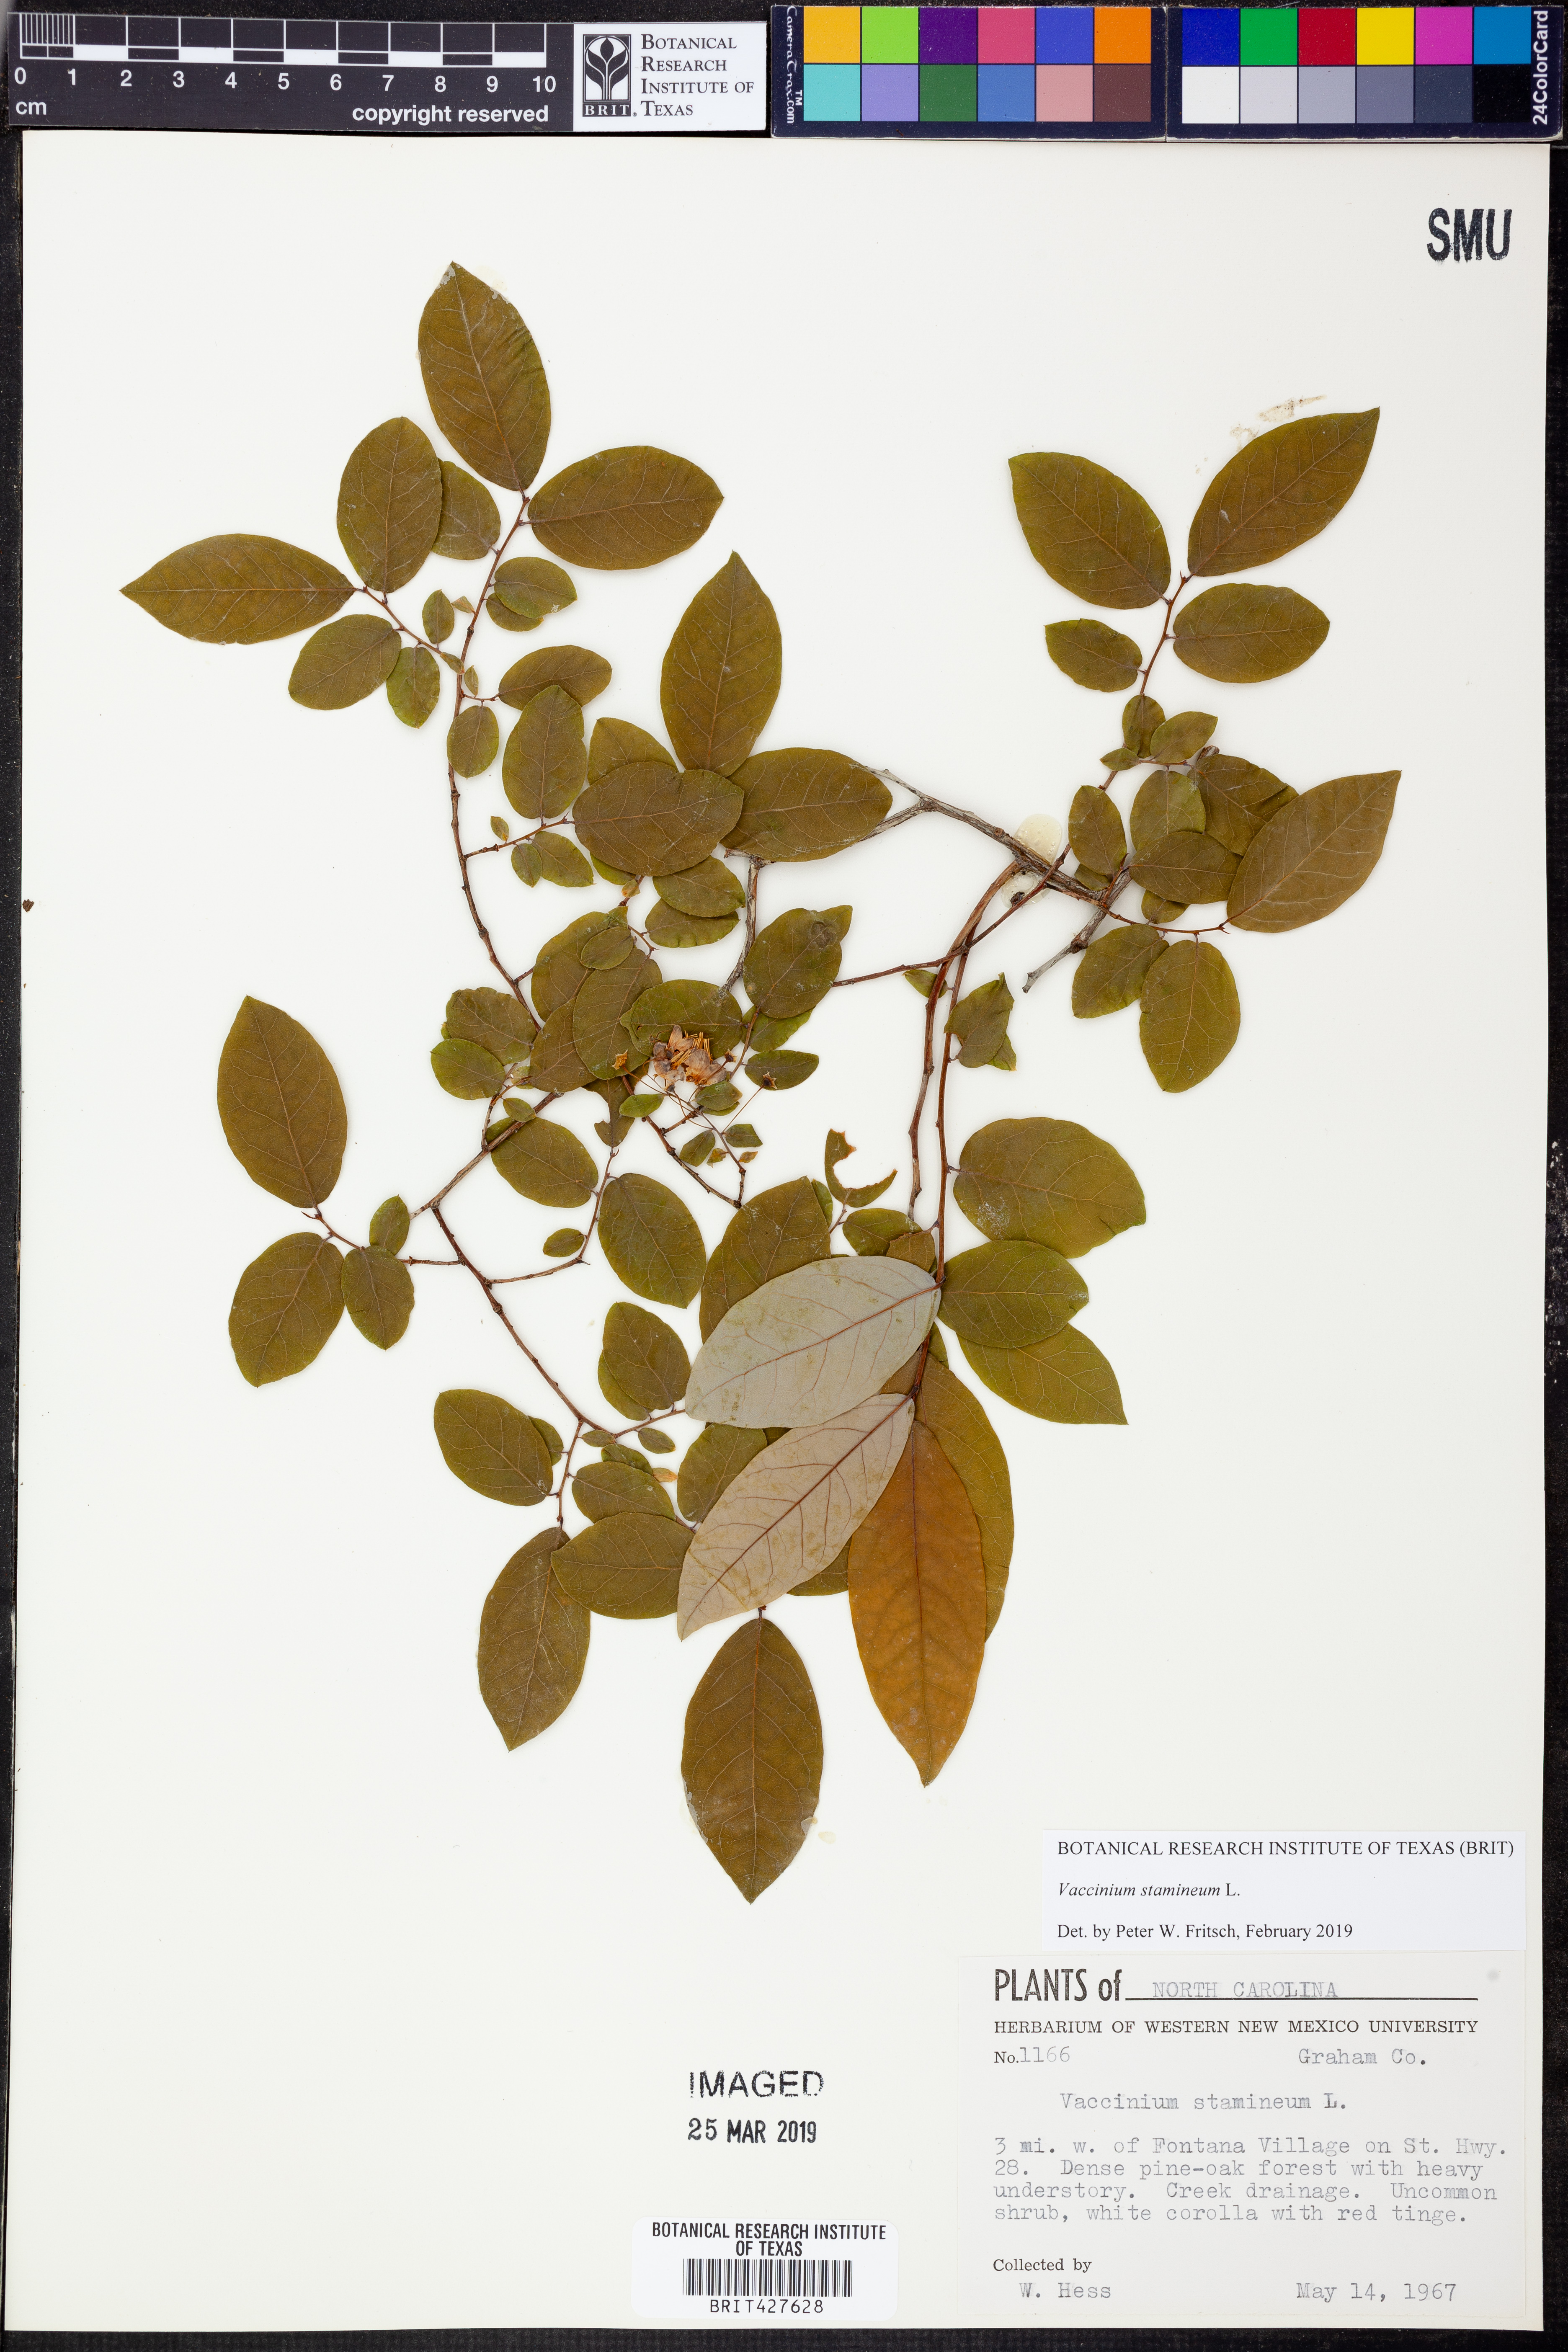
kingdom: Plantae
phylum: Tracheophyta
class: Magnoliopsida
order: Ericales
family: Ericaceae
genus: Vaccinium
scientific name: Vaccinium stamineum
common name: Deerberry
